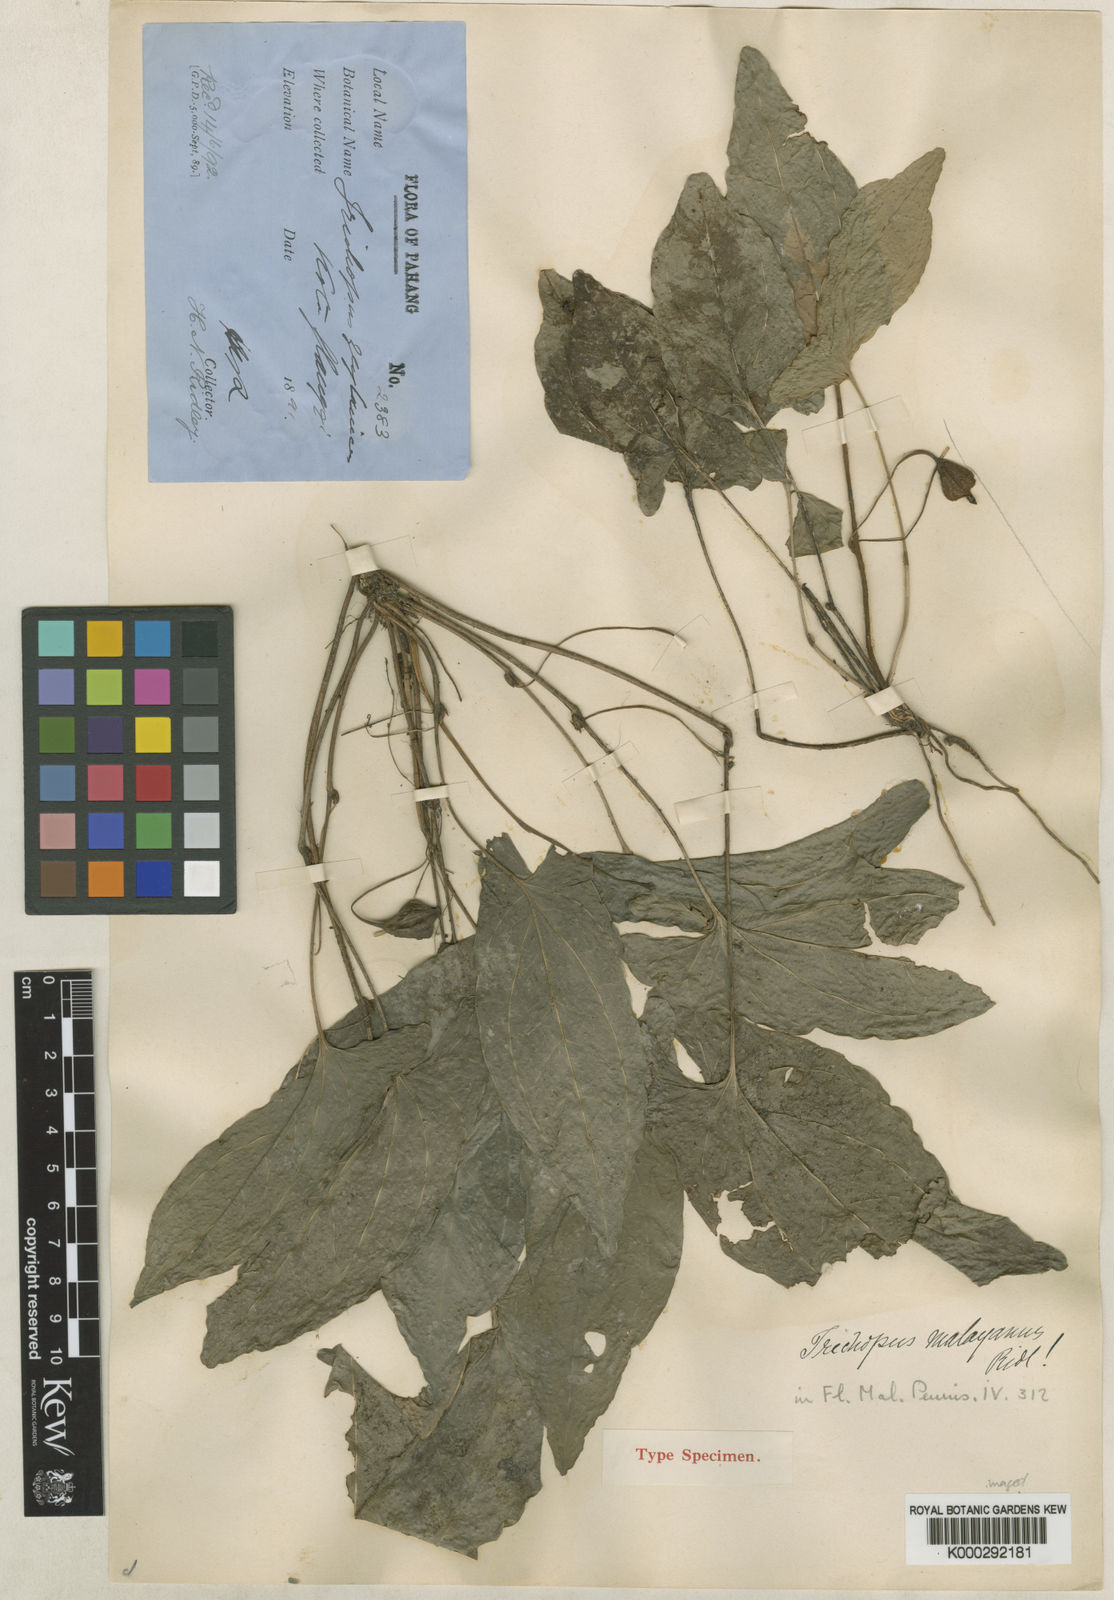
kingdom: Plantae
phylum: Tracheophyta
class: Liliopsida
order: Dioscoreales
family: Dioscoreaceae
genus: Trichopus
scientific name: Trichopus zeylanicus
